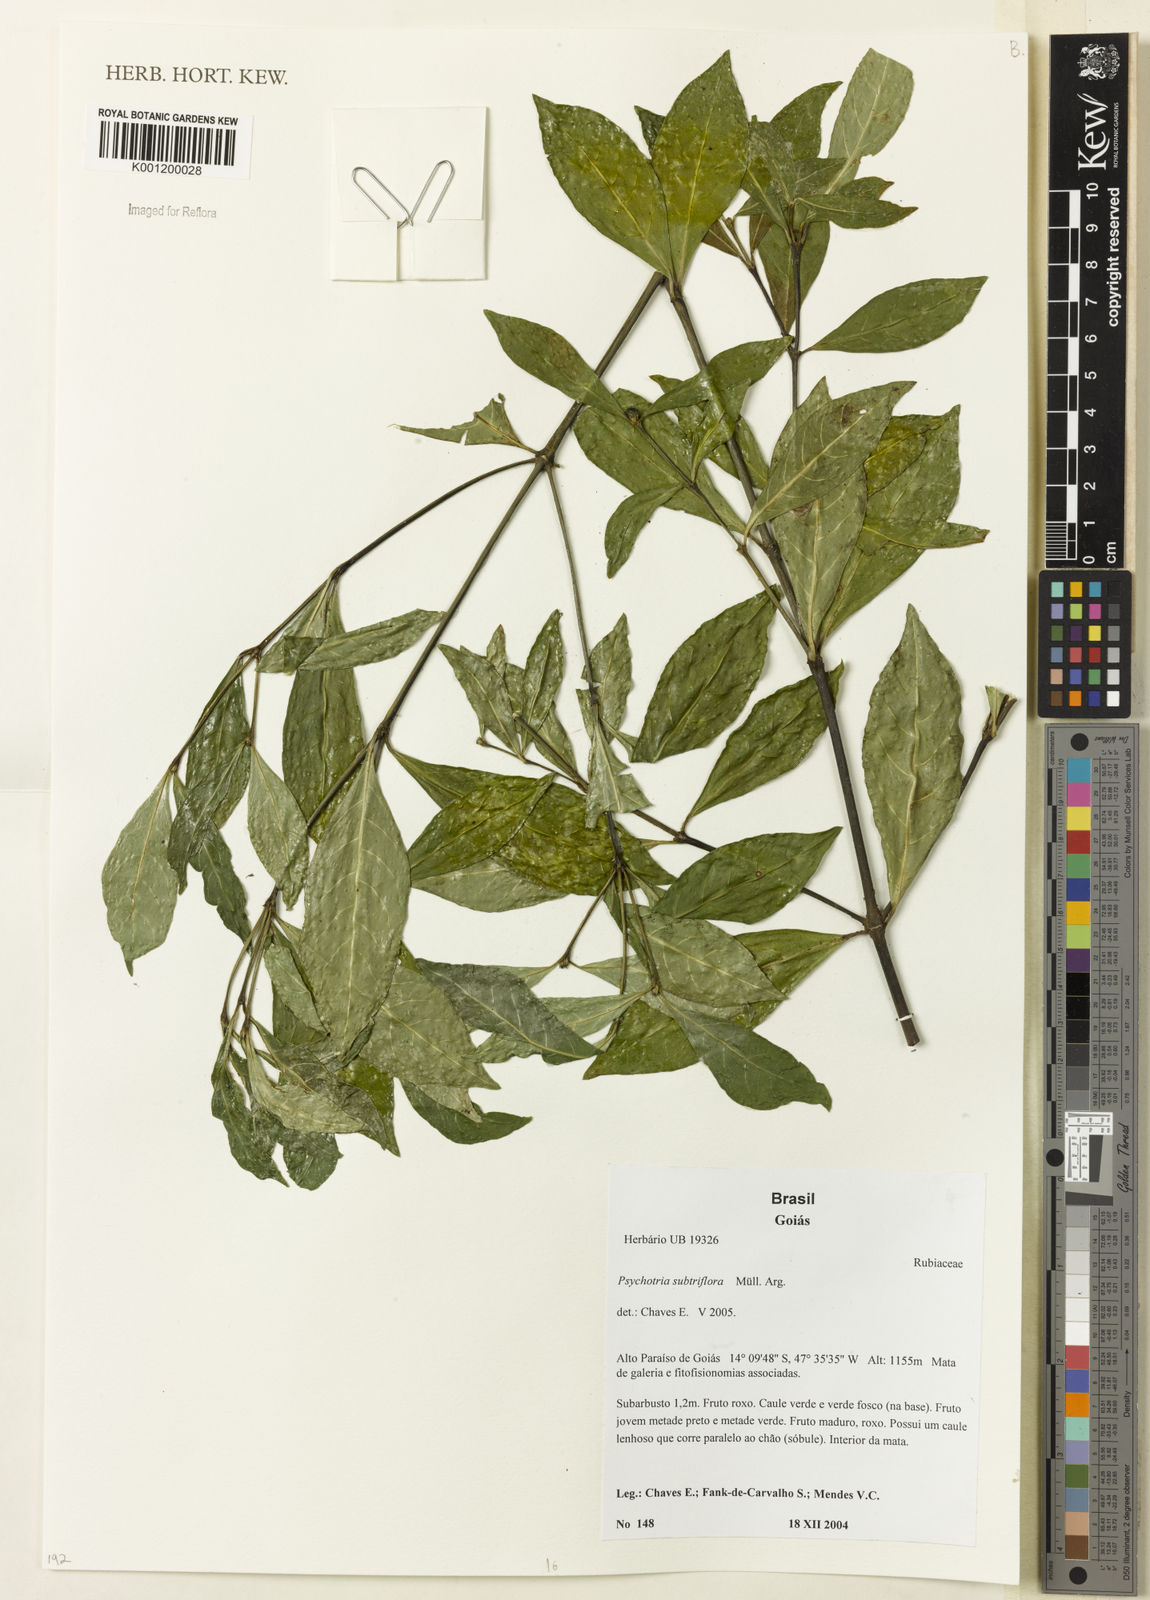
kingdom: Plantae
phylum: Tracheophyta
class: Magnoliopsida
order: Gentianales
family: Rubiaceae
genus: Psychotria
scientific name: Psychotria
